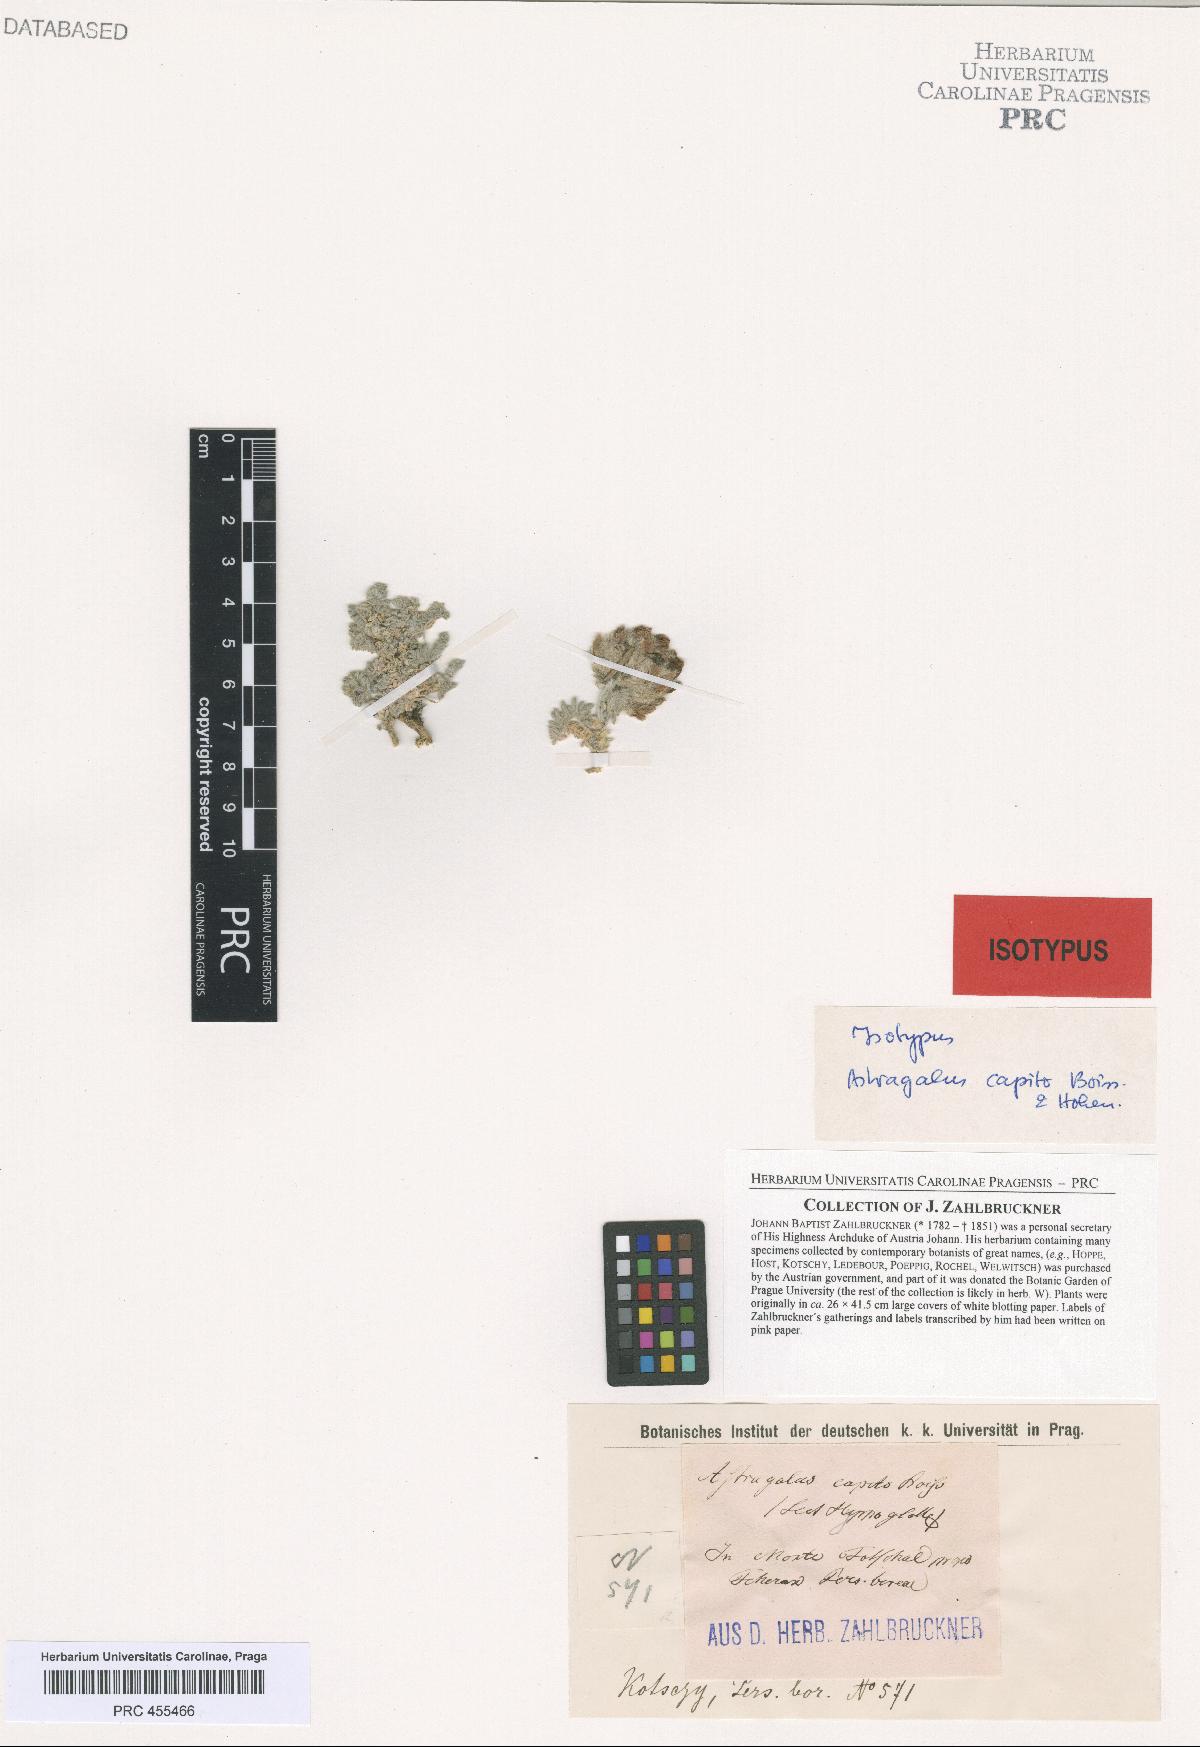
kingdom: Plantae
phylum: Tracheophyta
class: Magnoliopsida
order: Fabales
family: Fabaceae
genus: Astragalus
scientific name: Astragalus capito
